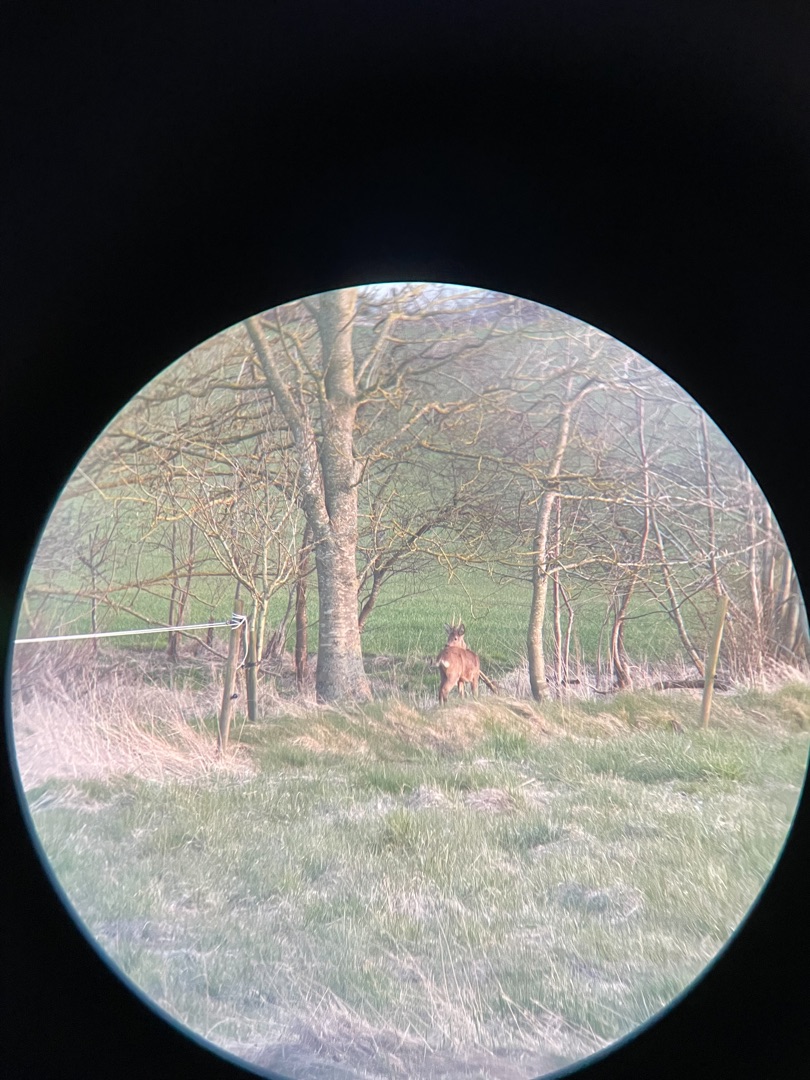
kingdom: Animalia
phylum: Chordata
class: Mammalia
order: Artiodactyla
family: Cervidae
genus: Capreolus
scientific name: Capreolus capreolus
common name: Rådyr
